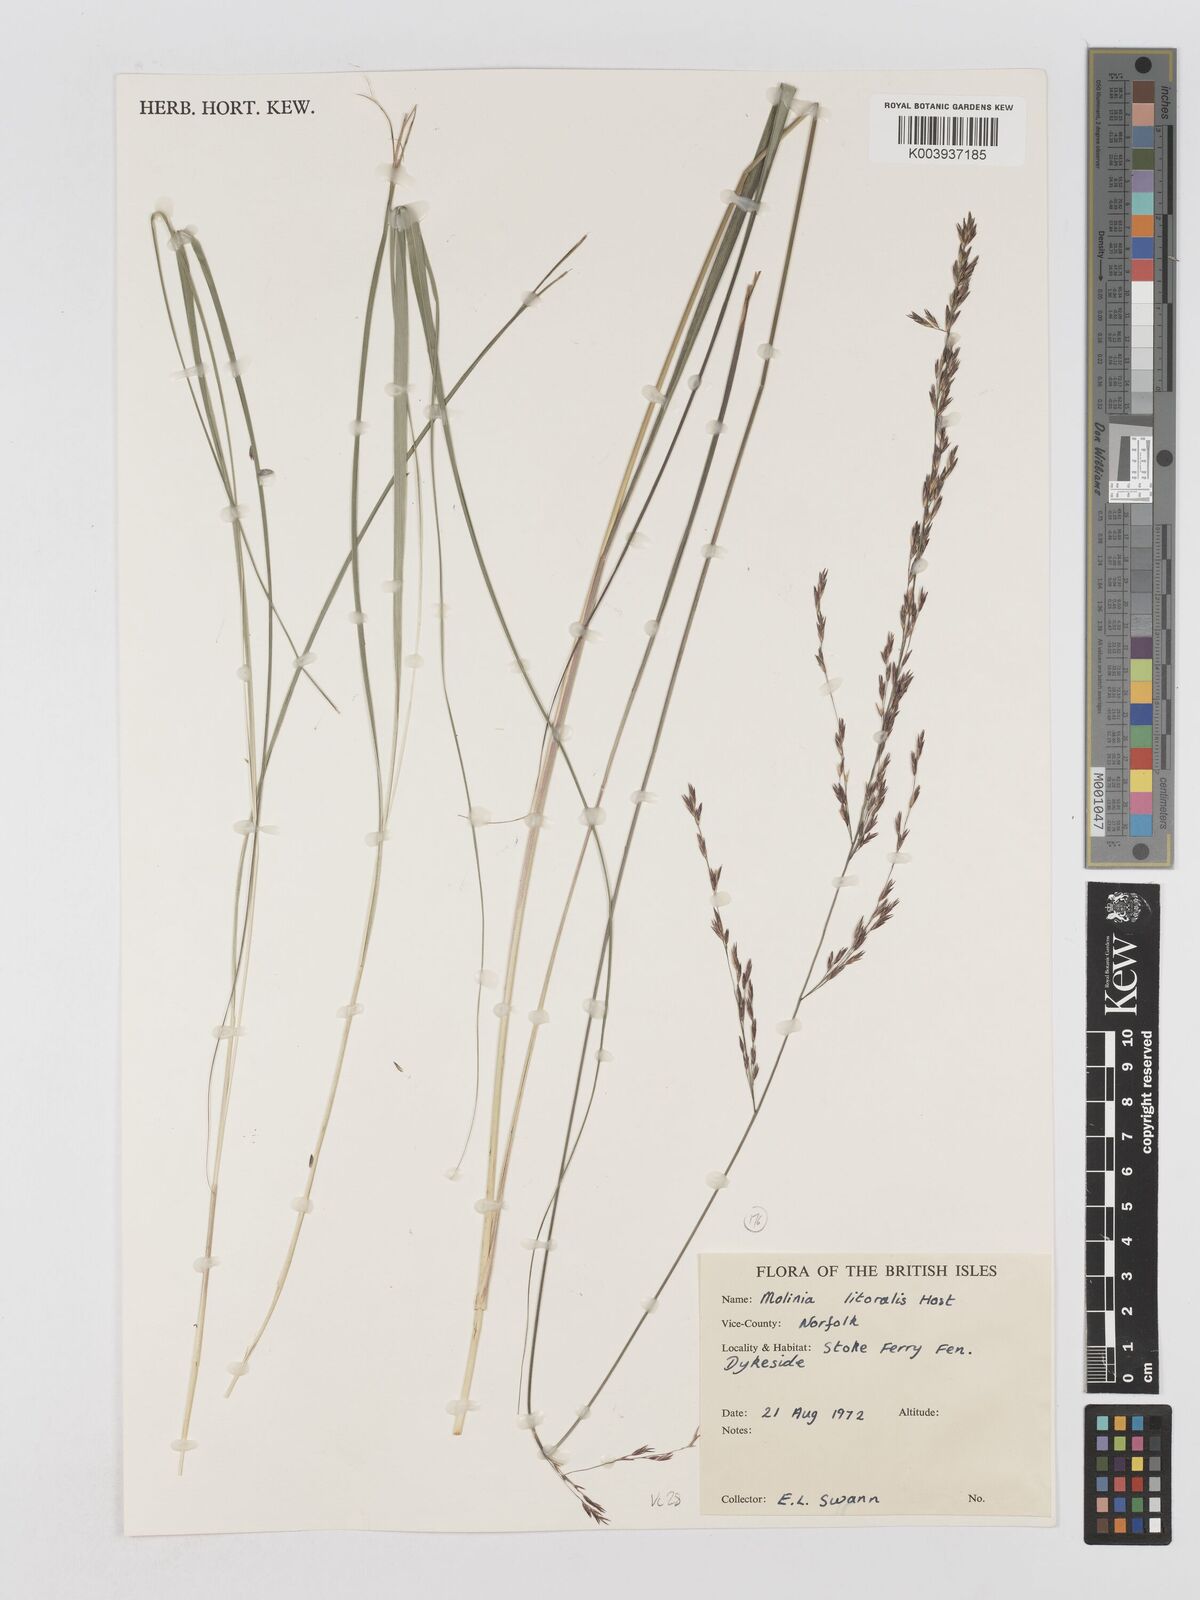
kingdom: Plantae
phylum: Tracheophyta
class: Liliopsida
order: Poales
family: Poaceae
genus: Molinia
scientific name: Molinia caerulea
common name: Purple moor-grass
